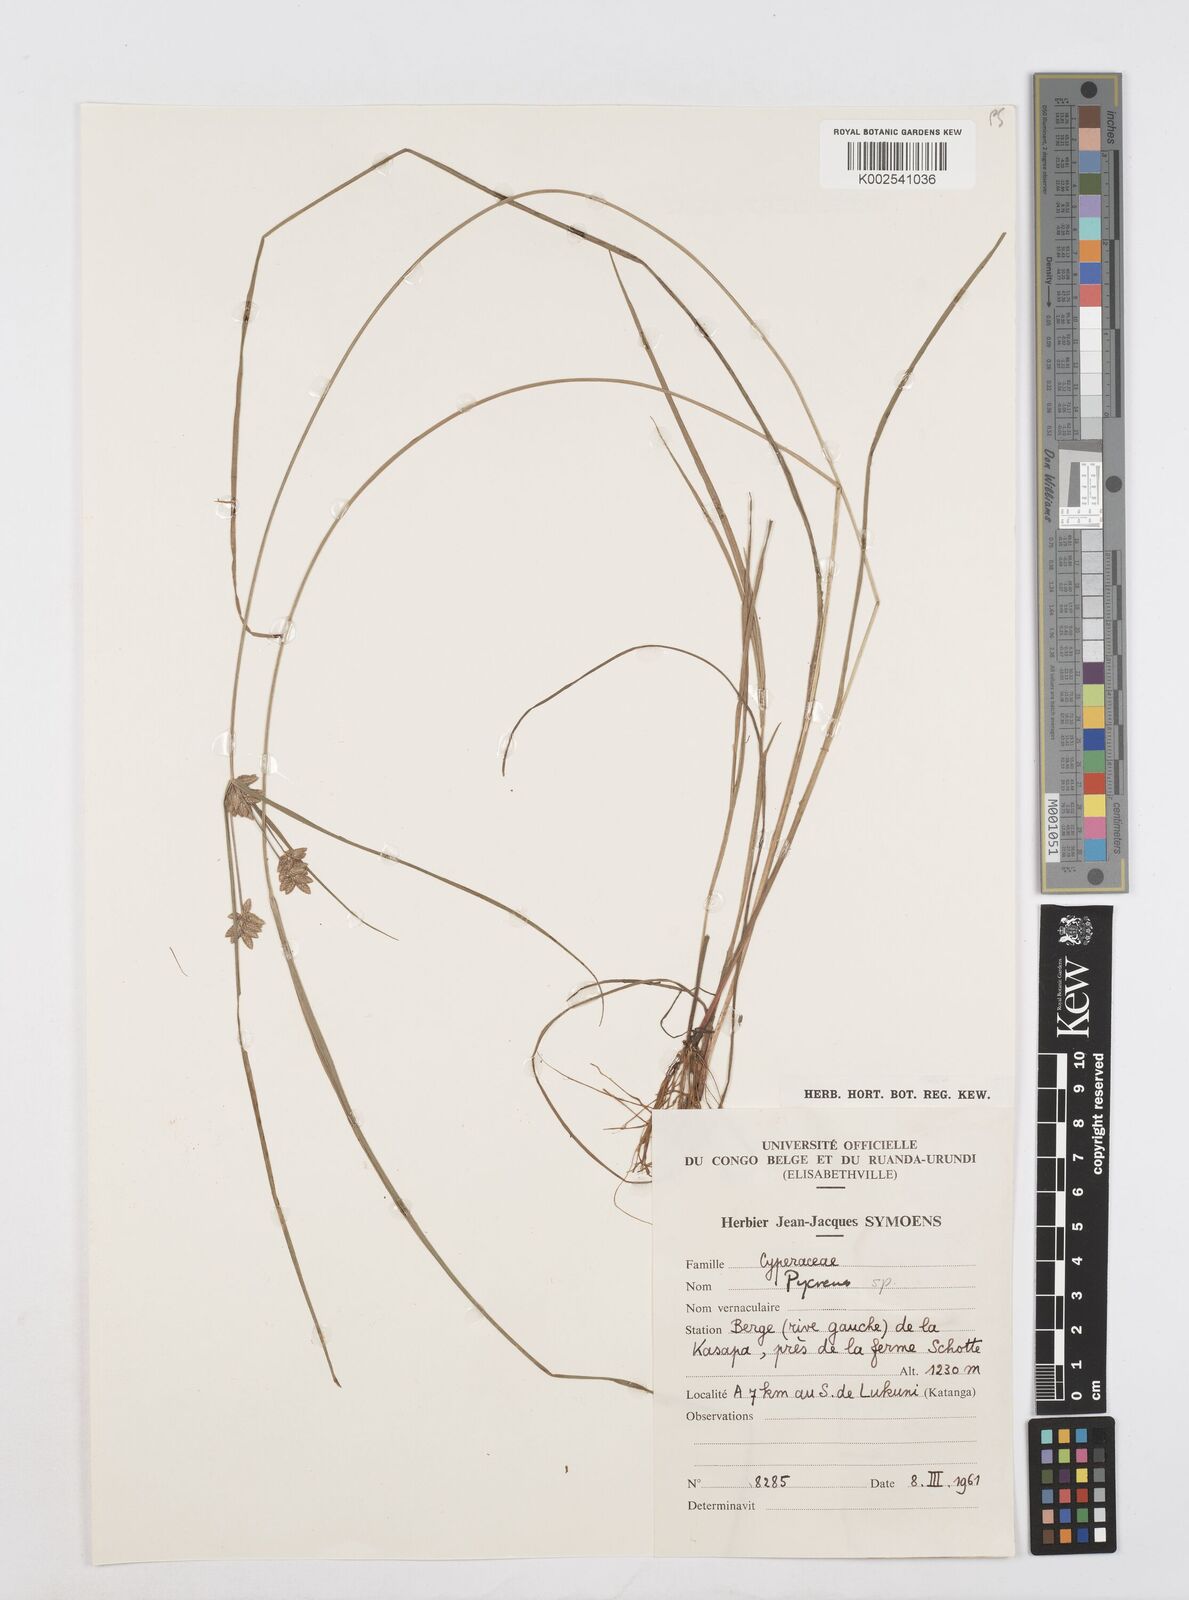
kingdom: Plantae
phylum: Tracheophyta
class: Liliopsida
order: Poales
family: Cyperaceae
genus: Cyperus
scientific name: Cyperus
